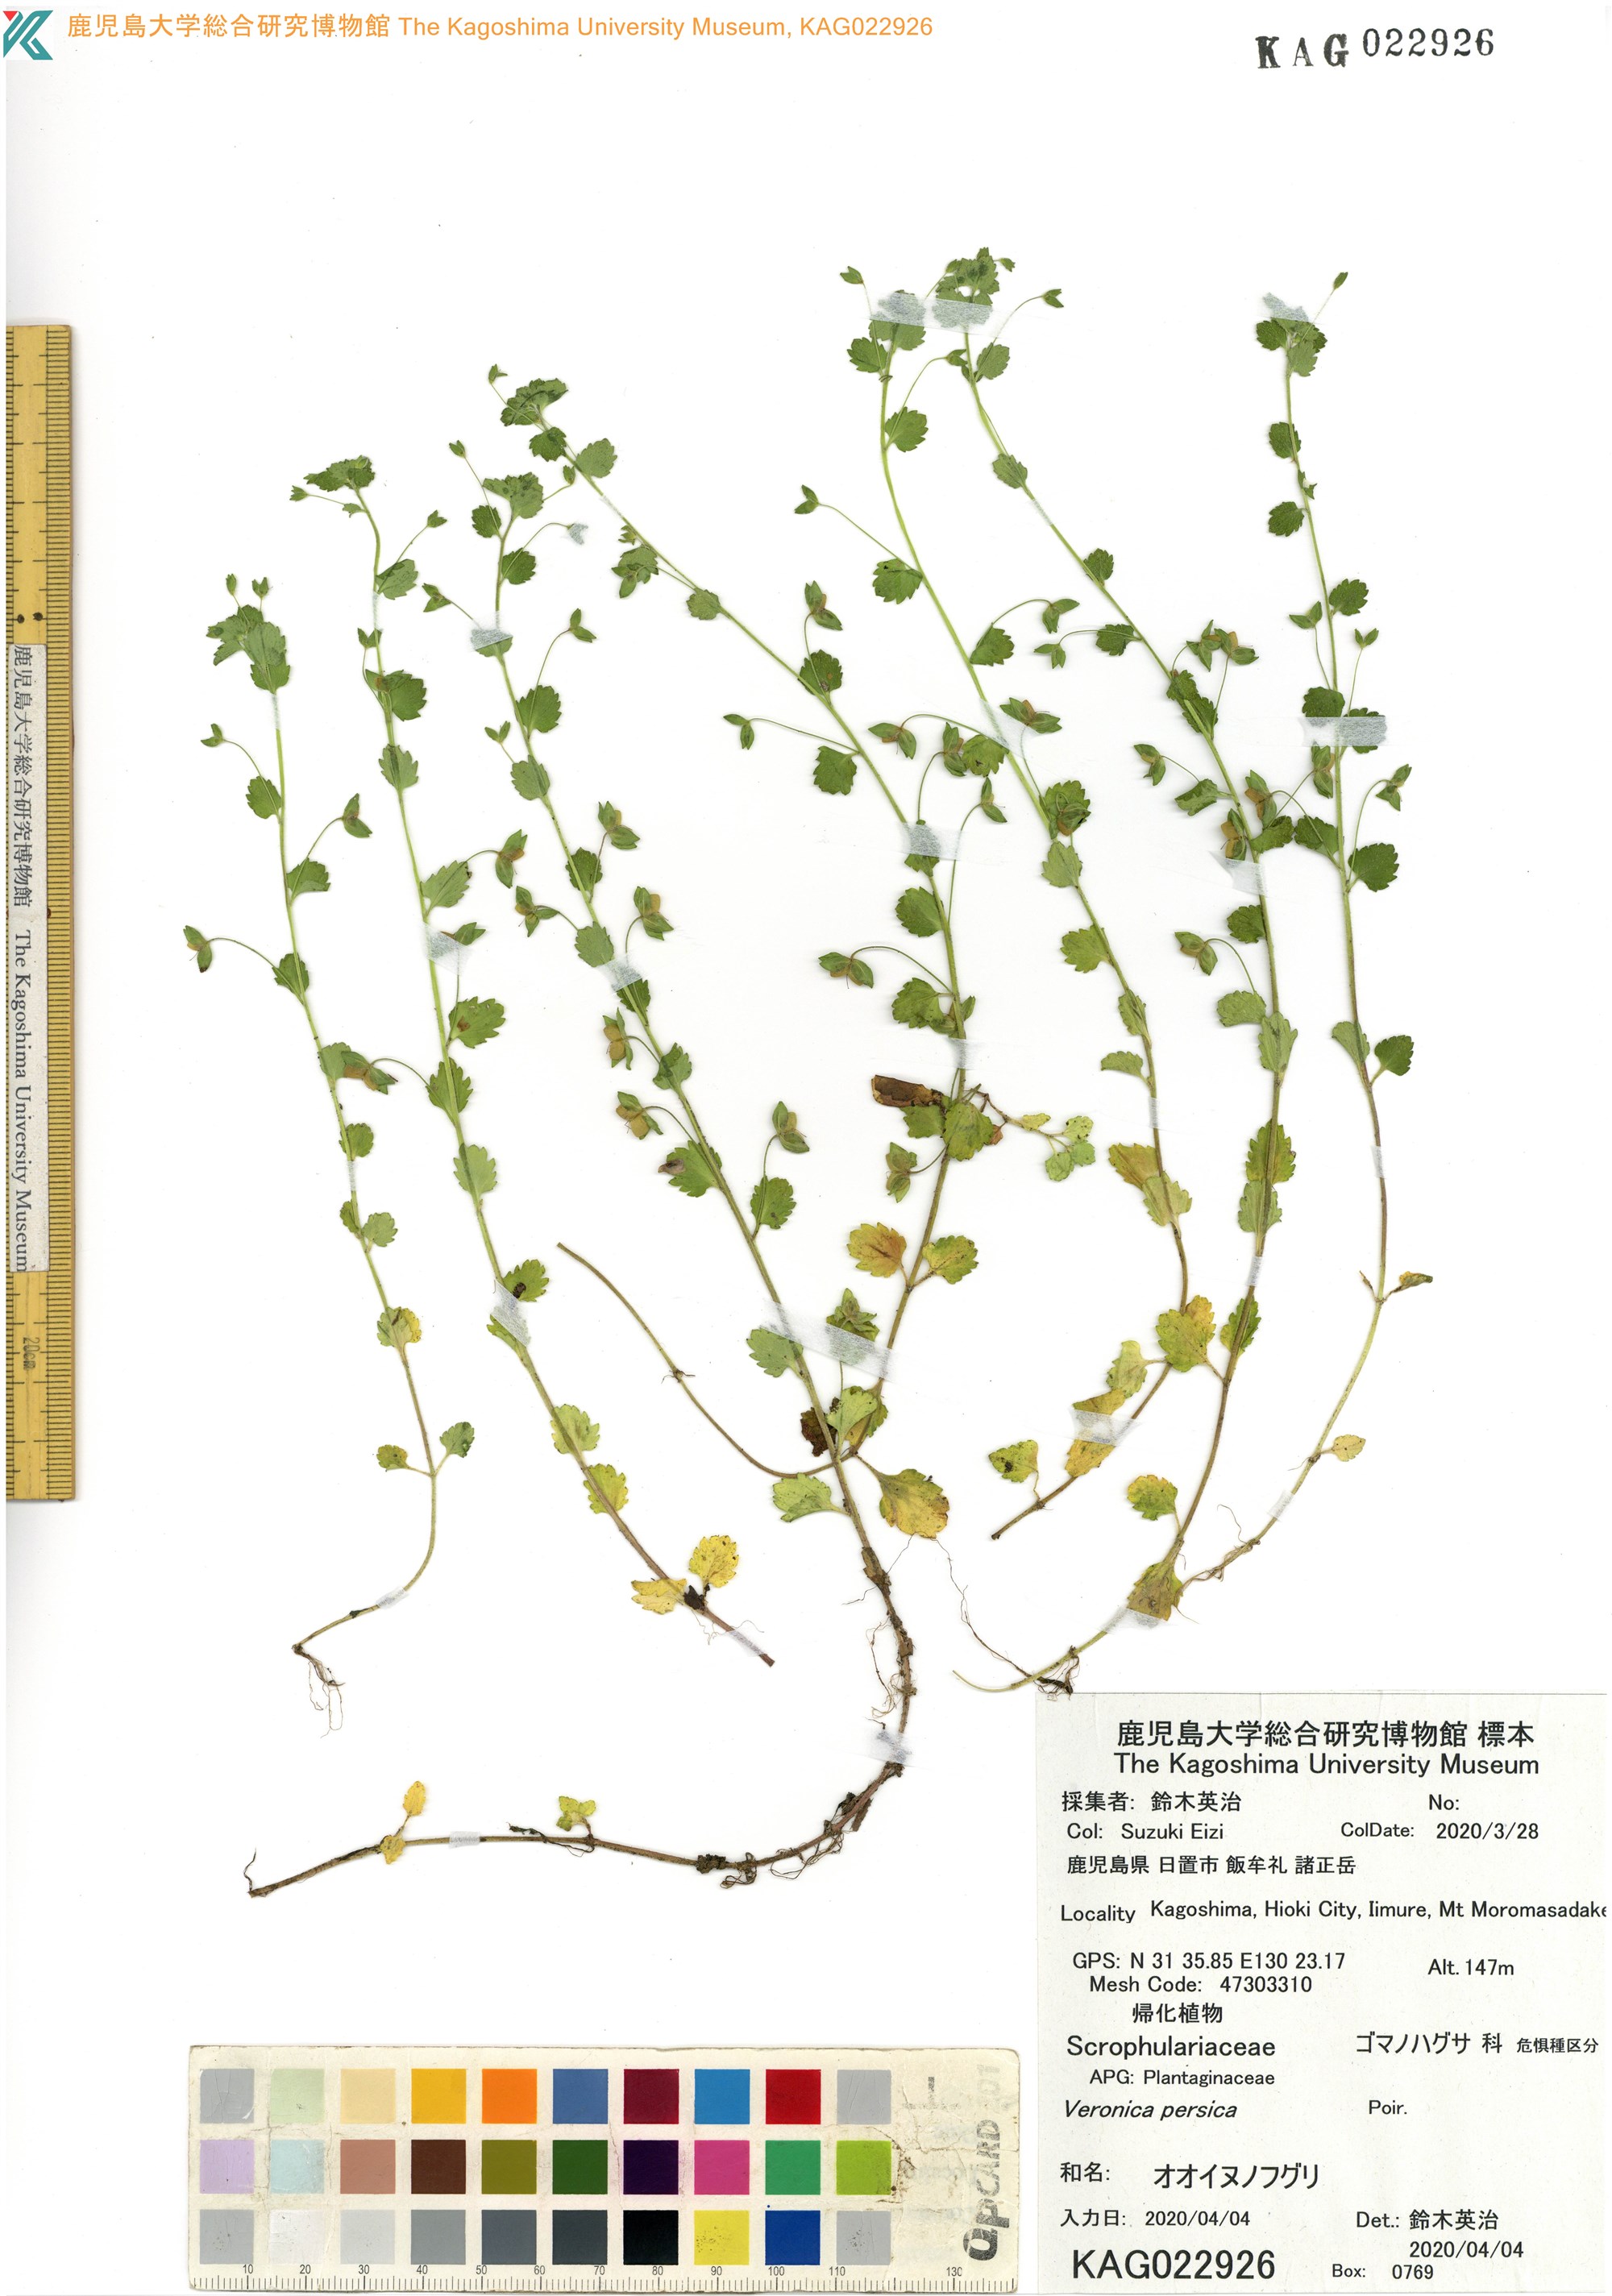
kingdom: Plantae
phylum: Tracheophyta
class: Magnoliopsida
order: Lamiales
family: Plantaginaceae
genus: Veronica
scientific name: Veronica persica
